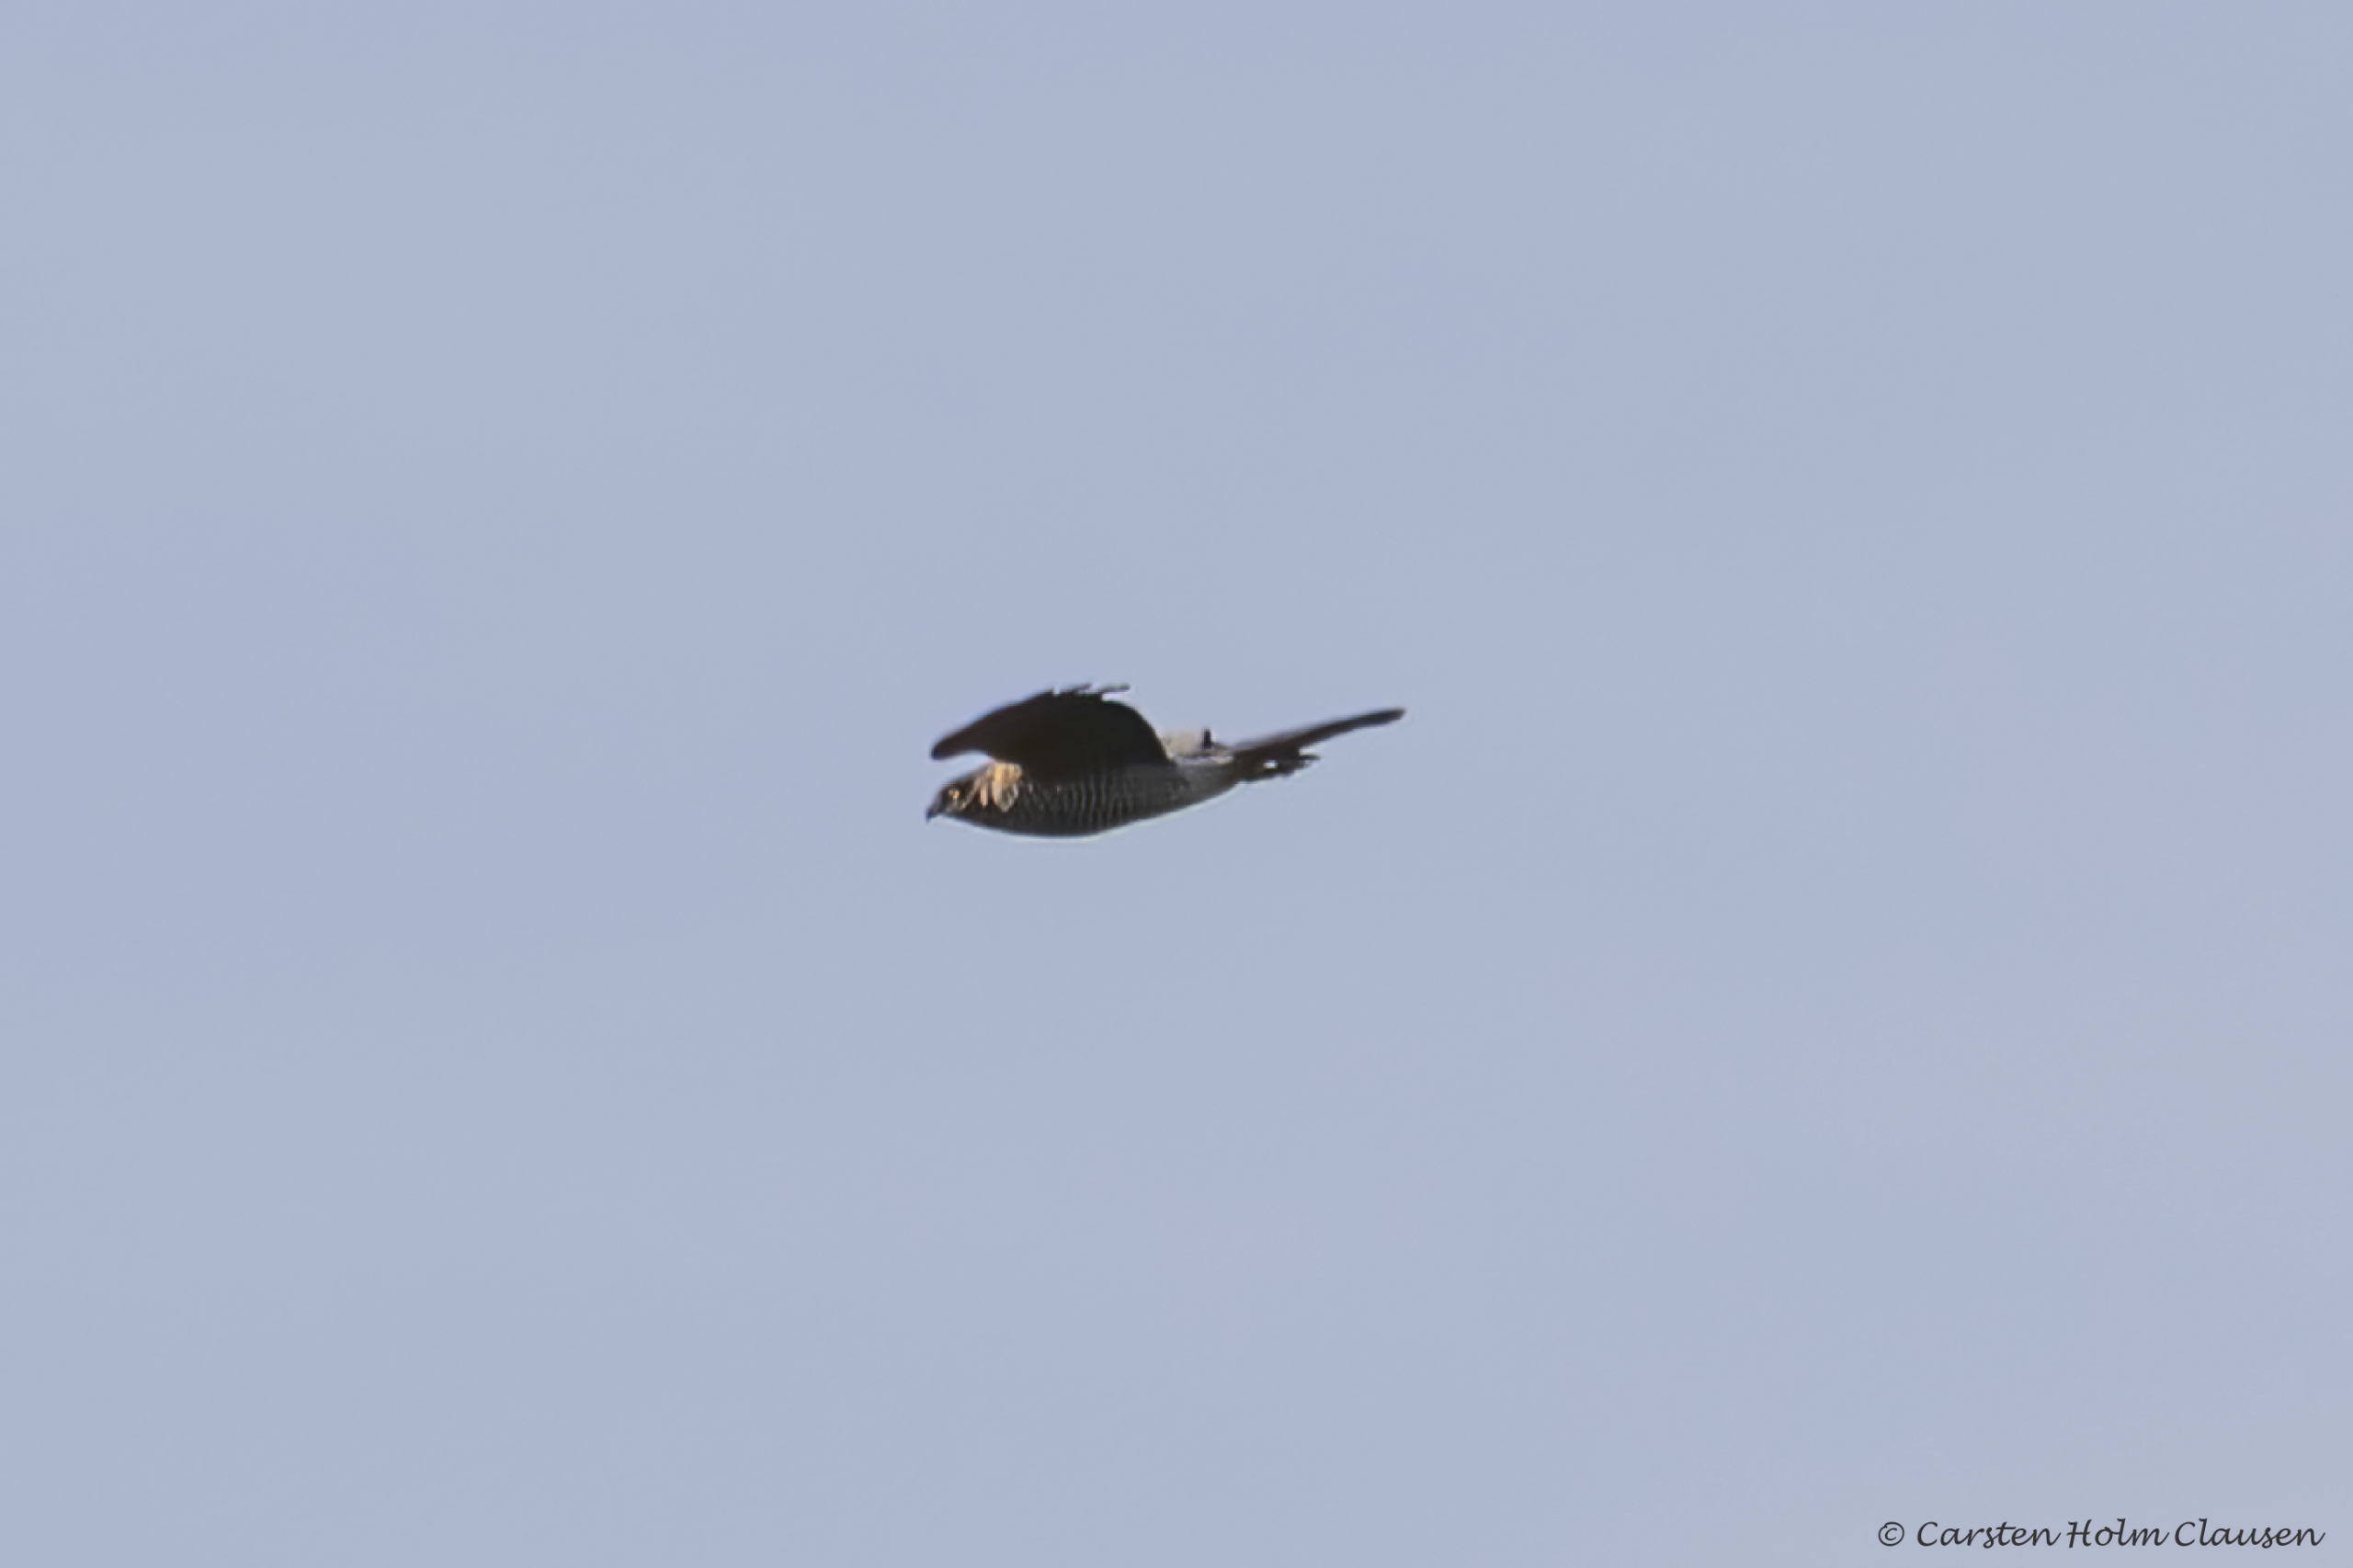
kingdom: Animalia
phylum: Chordata
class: Aves
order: Accipitriformes
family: Accipitridae
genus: Accipiter
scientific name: Accipiter nisus
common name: Spurvehøg
